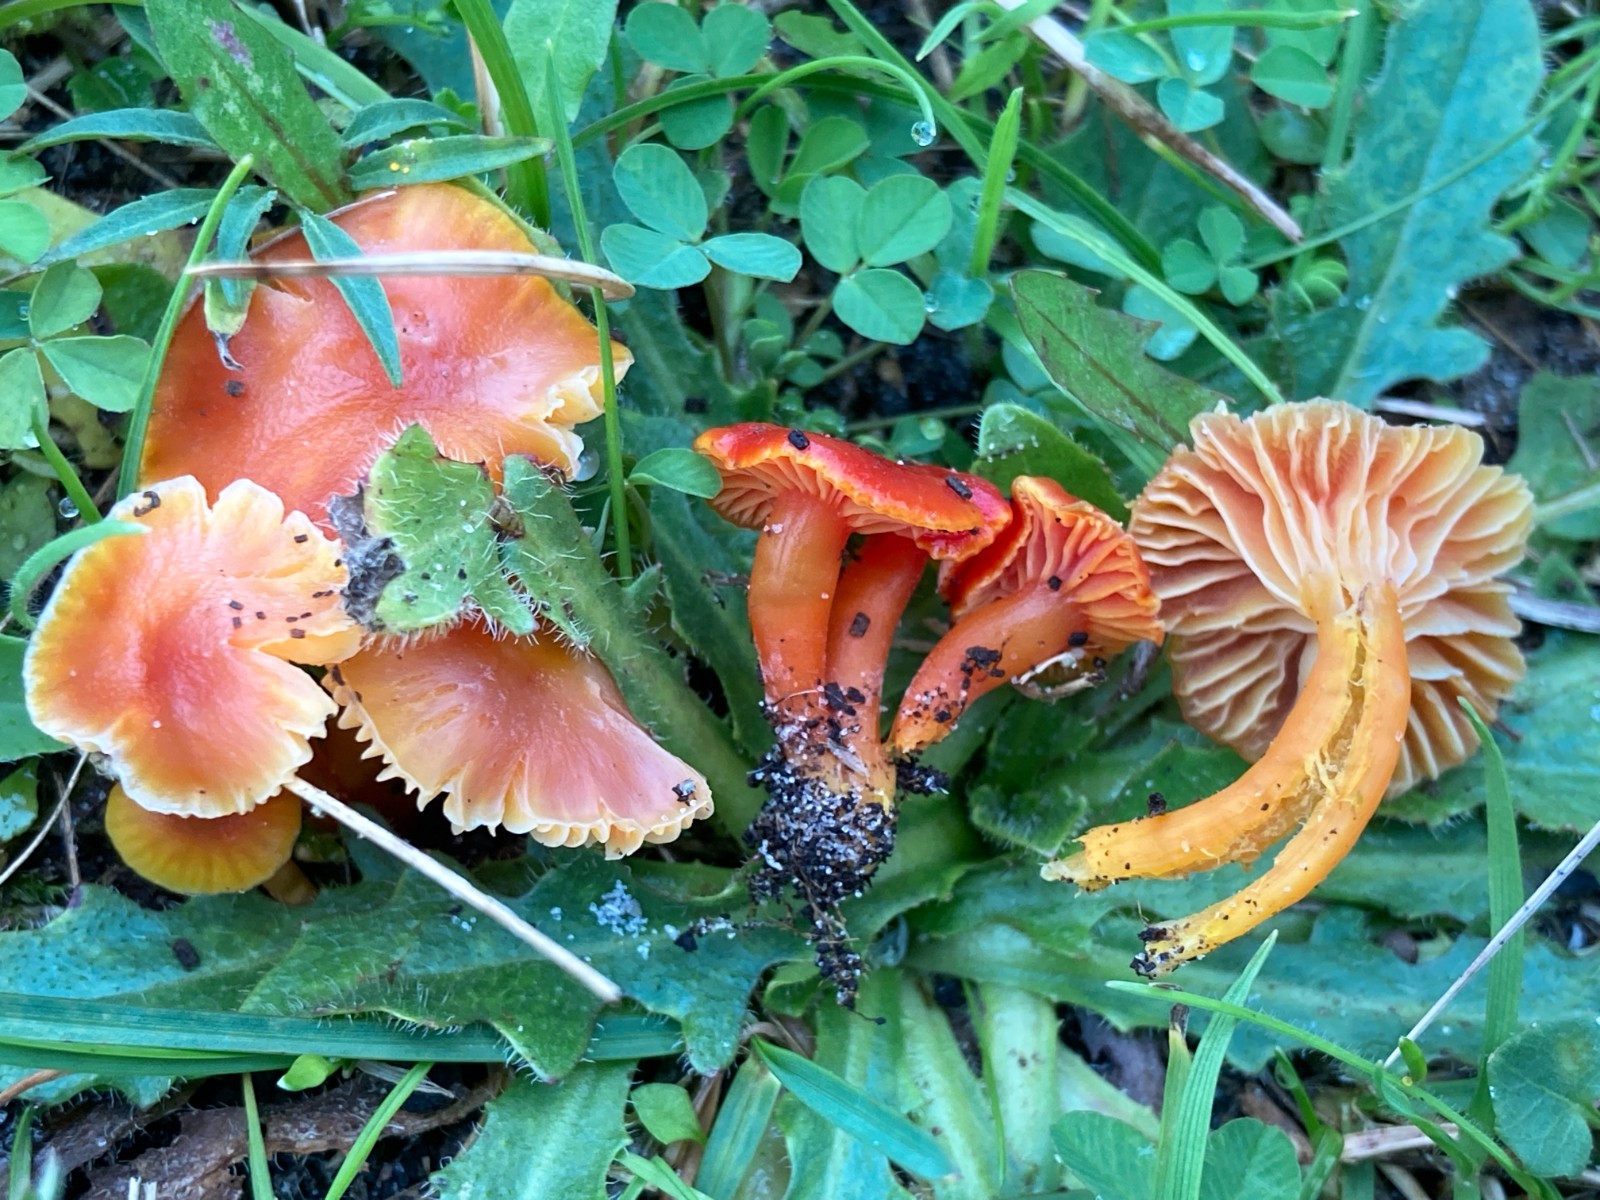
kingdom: Fungi
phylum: Basidiomycota
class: Agaricomycetes
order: Agaricales
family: Hygrophoraceae
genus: Hygrocybe
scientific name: Hygrocybe
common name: vokshat
